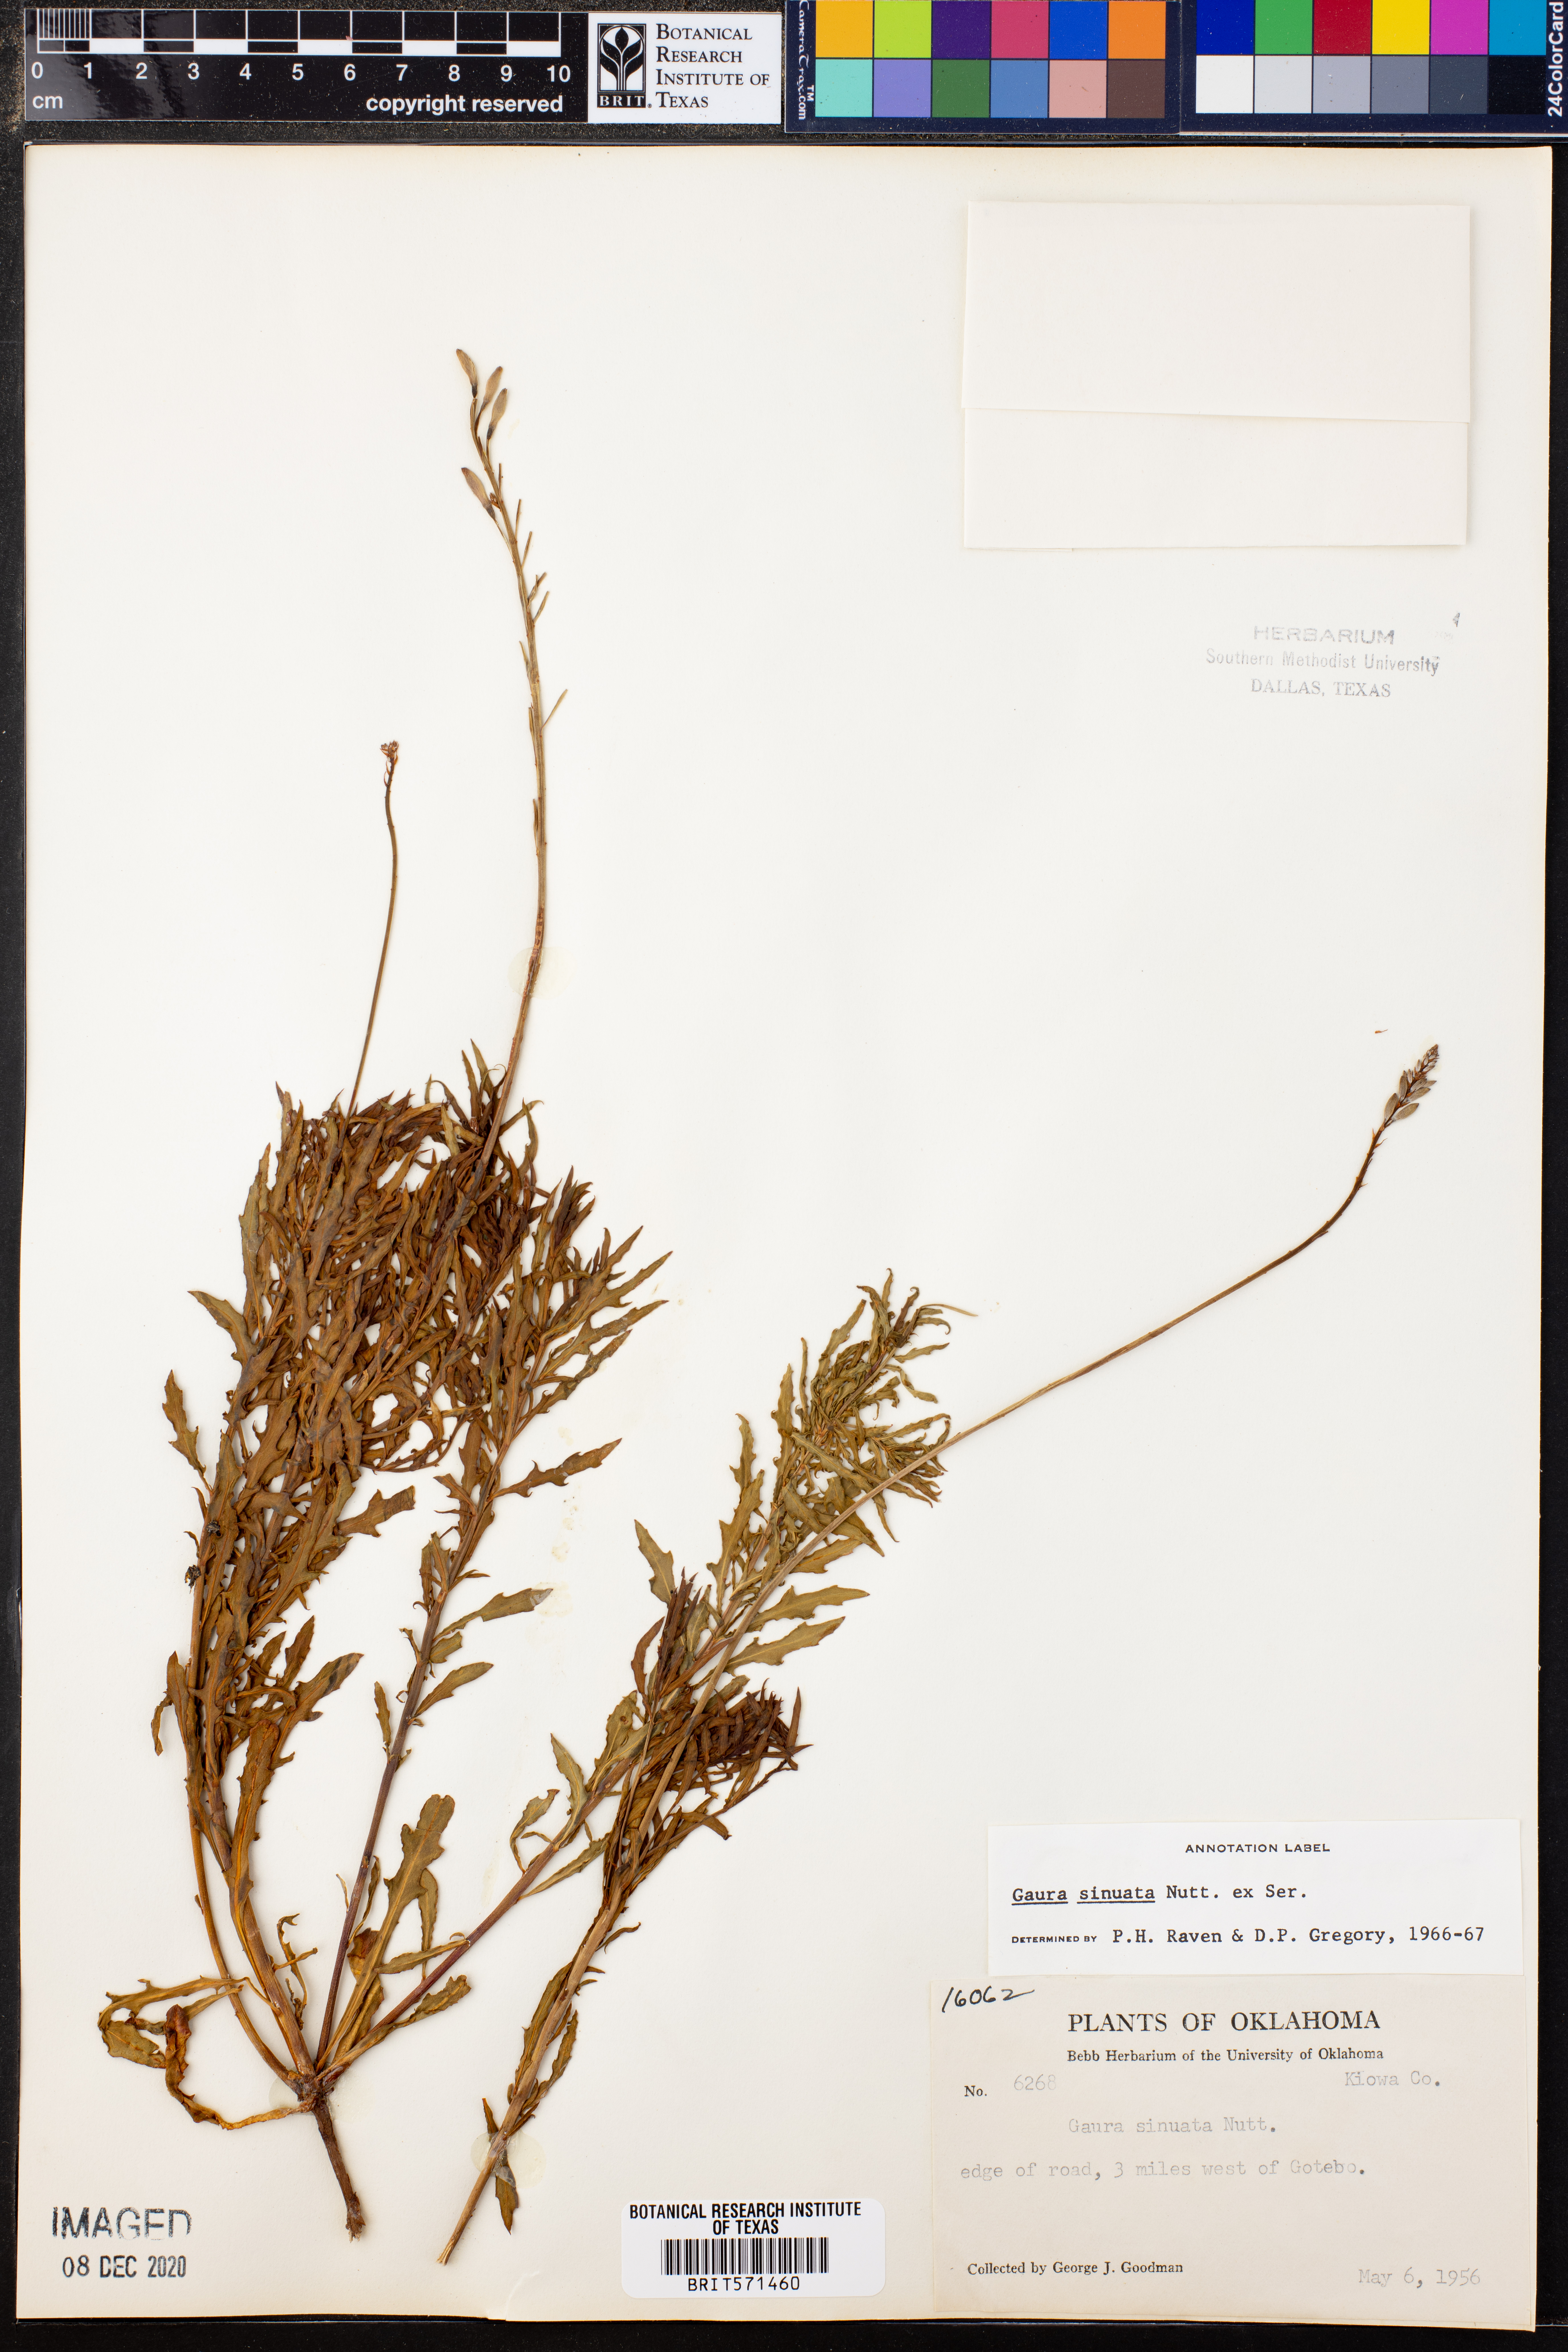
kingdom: Plantae
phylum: Tracheophyta
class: Magnoliopsida
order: Myrtales
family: Onagraceae
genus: Oenothera
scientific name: Oenothera sinuosa
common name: Wavyleaf beeblossom
